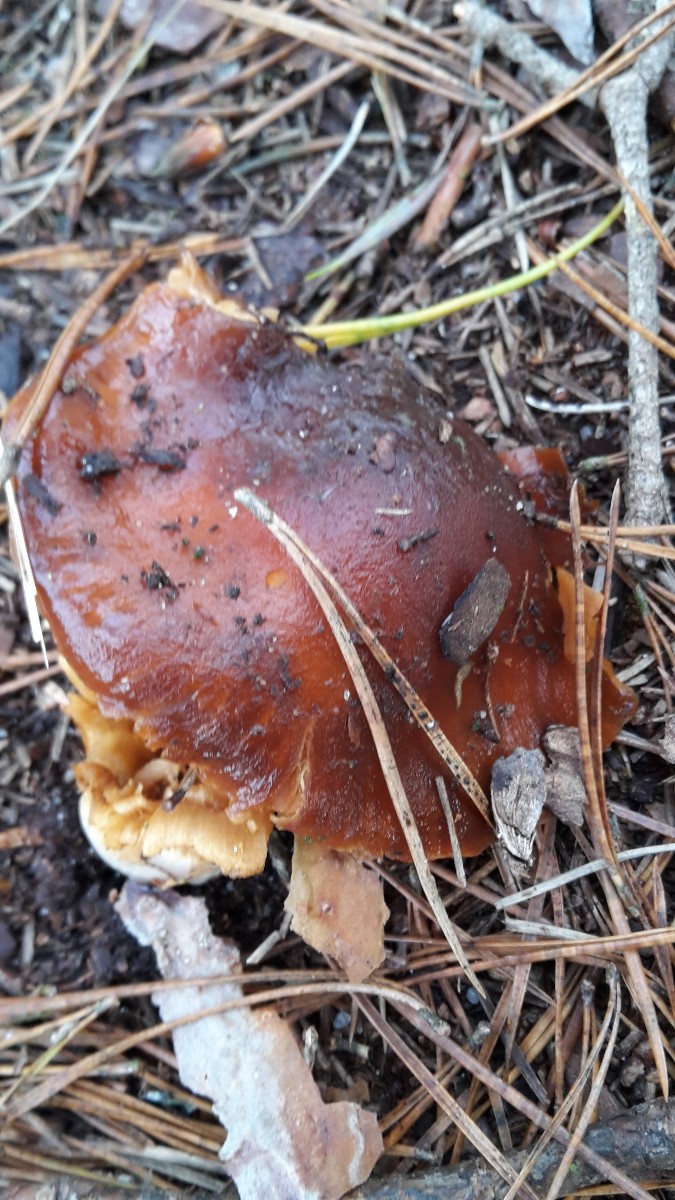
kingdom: Fungi
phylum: Basidiomycota
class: Agaricomycetes
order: Agaricales
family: Cortinariaceae
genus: Cortinarius
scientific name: Cortinarius mucosus
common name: kastaniebrun slørhat
